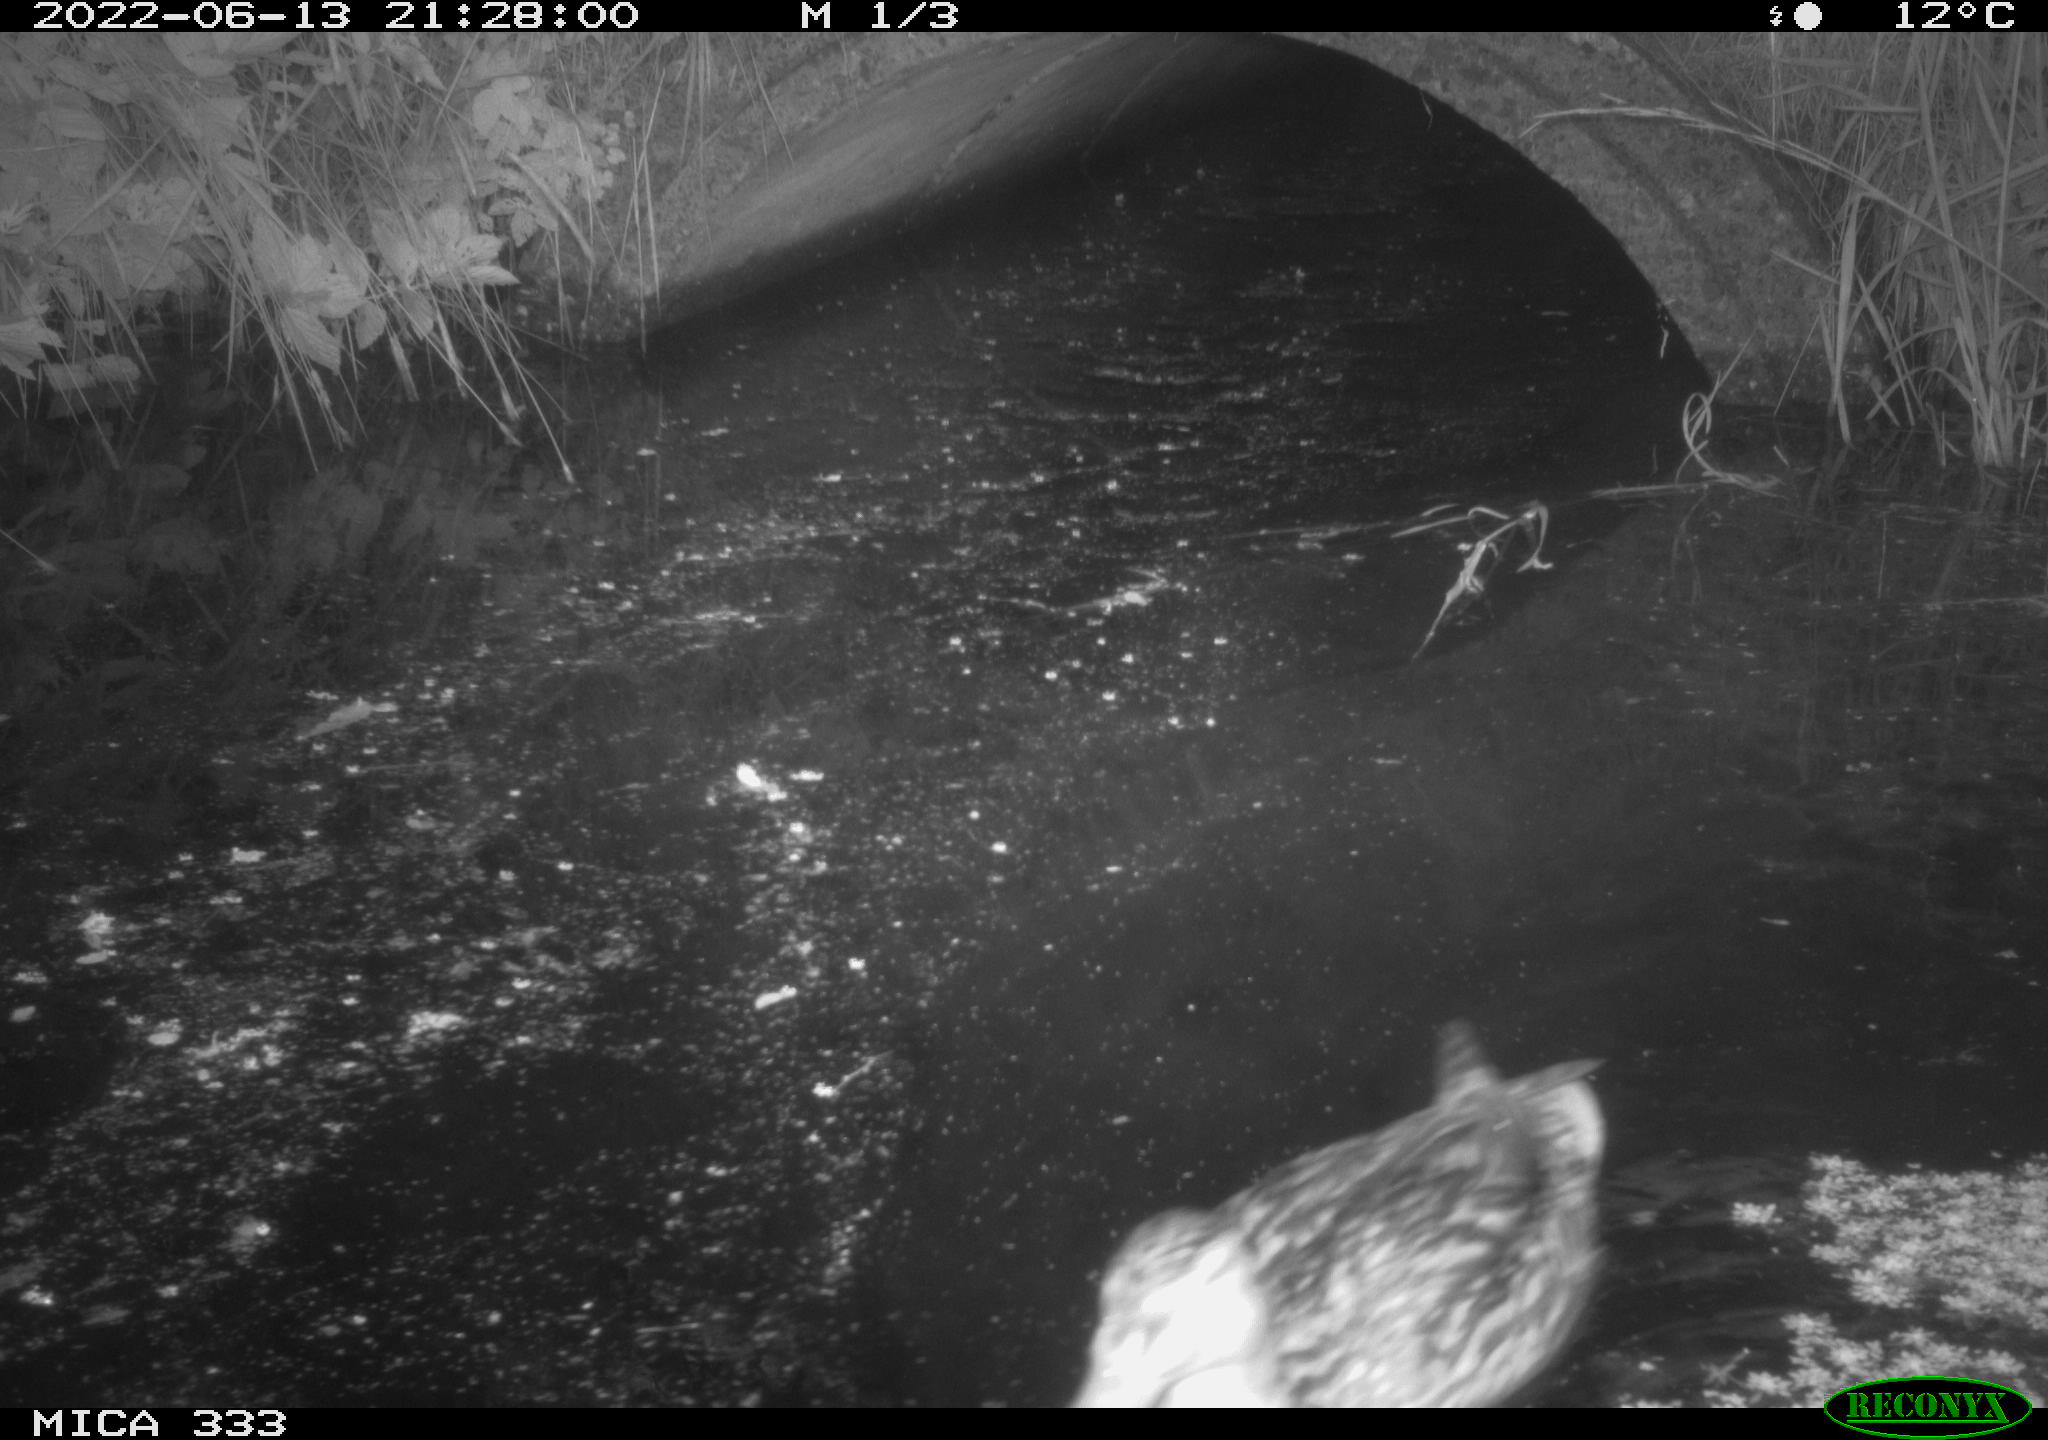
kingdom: Animalia
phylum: Chordata
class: Aves
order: Anseriformes
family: Anatidae
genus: Anas
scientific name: Anas platyrhynchos
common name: Mallard
